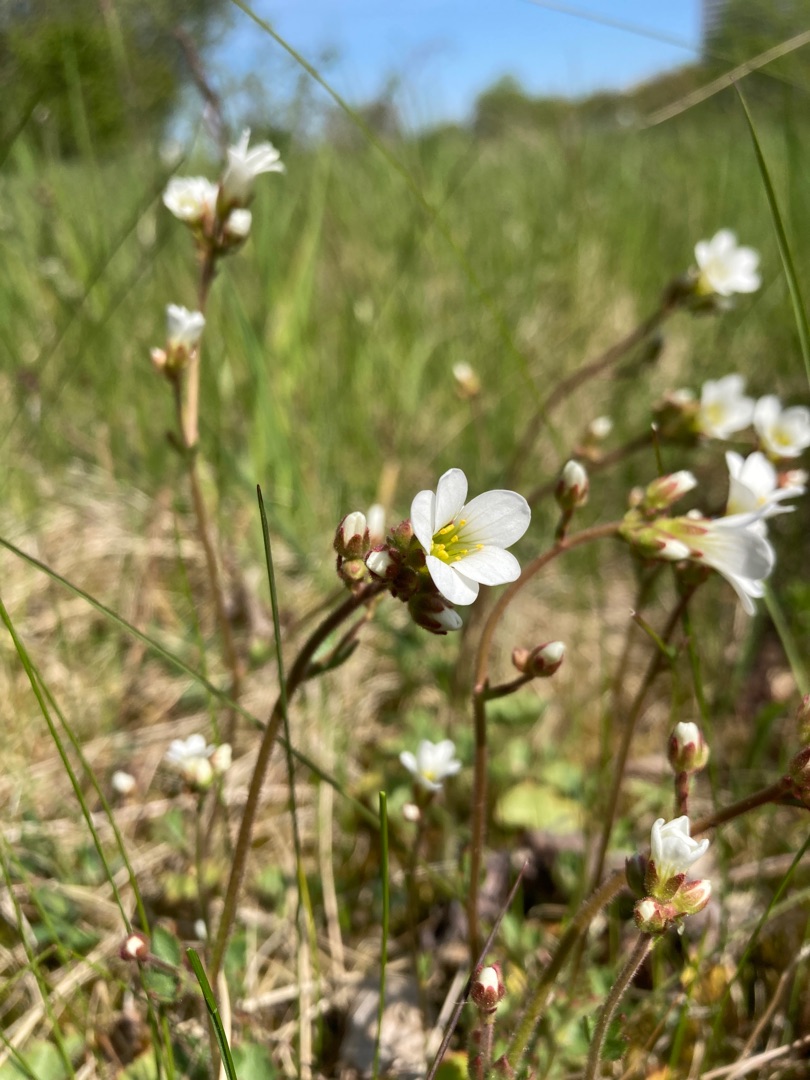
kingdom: Plantae
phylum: Tracheophyta
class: Magnoliopsida
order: Saxifragales
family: Saxifragaceae
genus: Saxifraga
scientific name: Saxifraga granulata
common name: Kornet stenbræk
